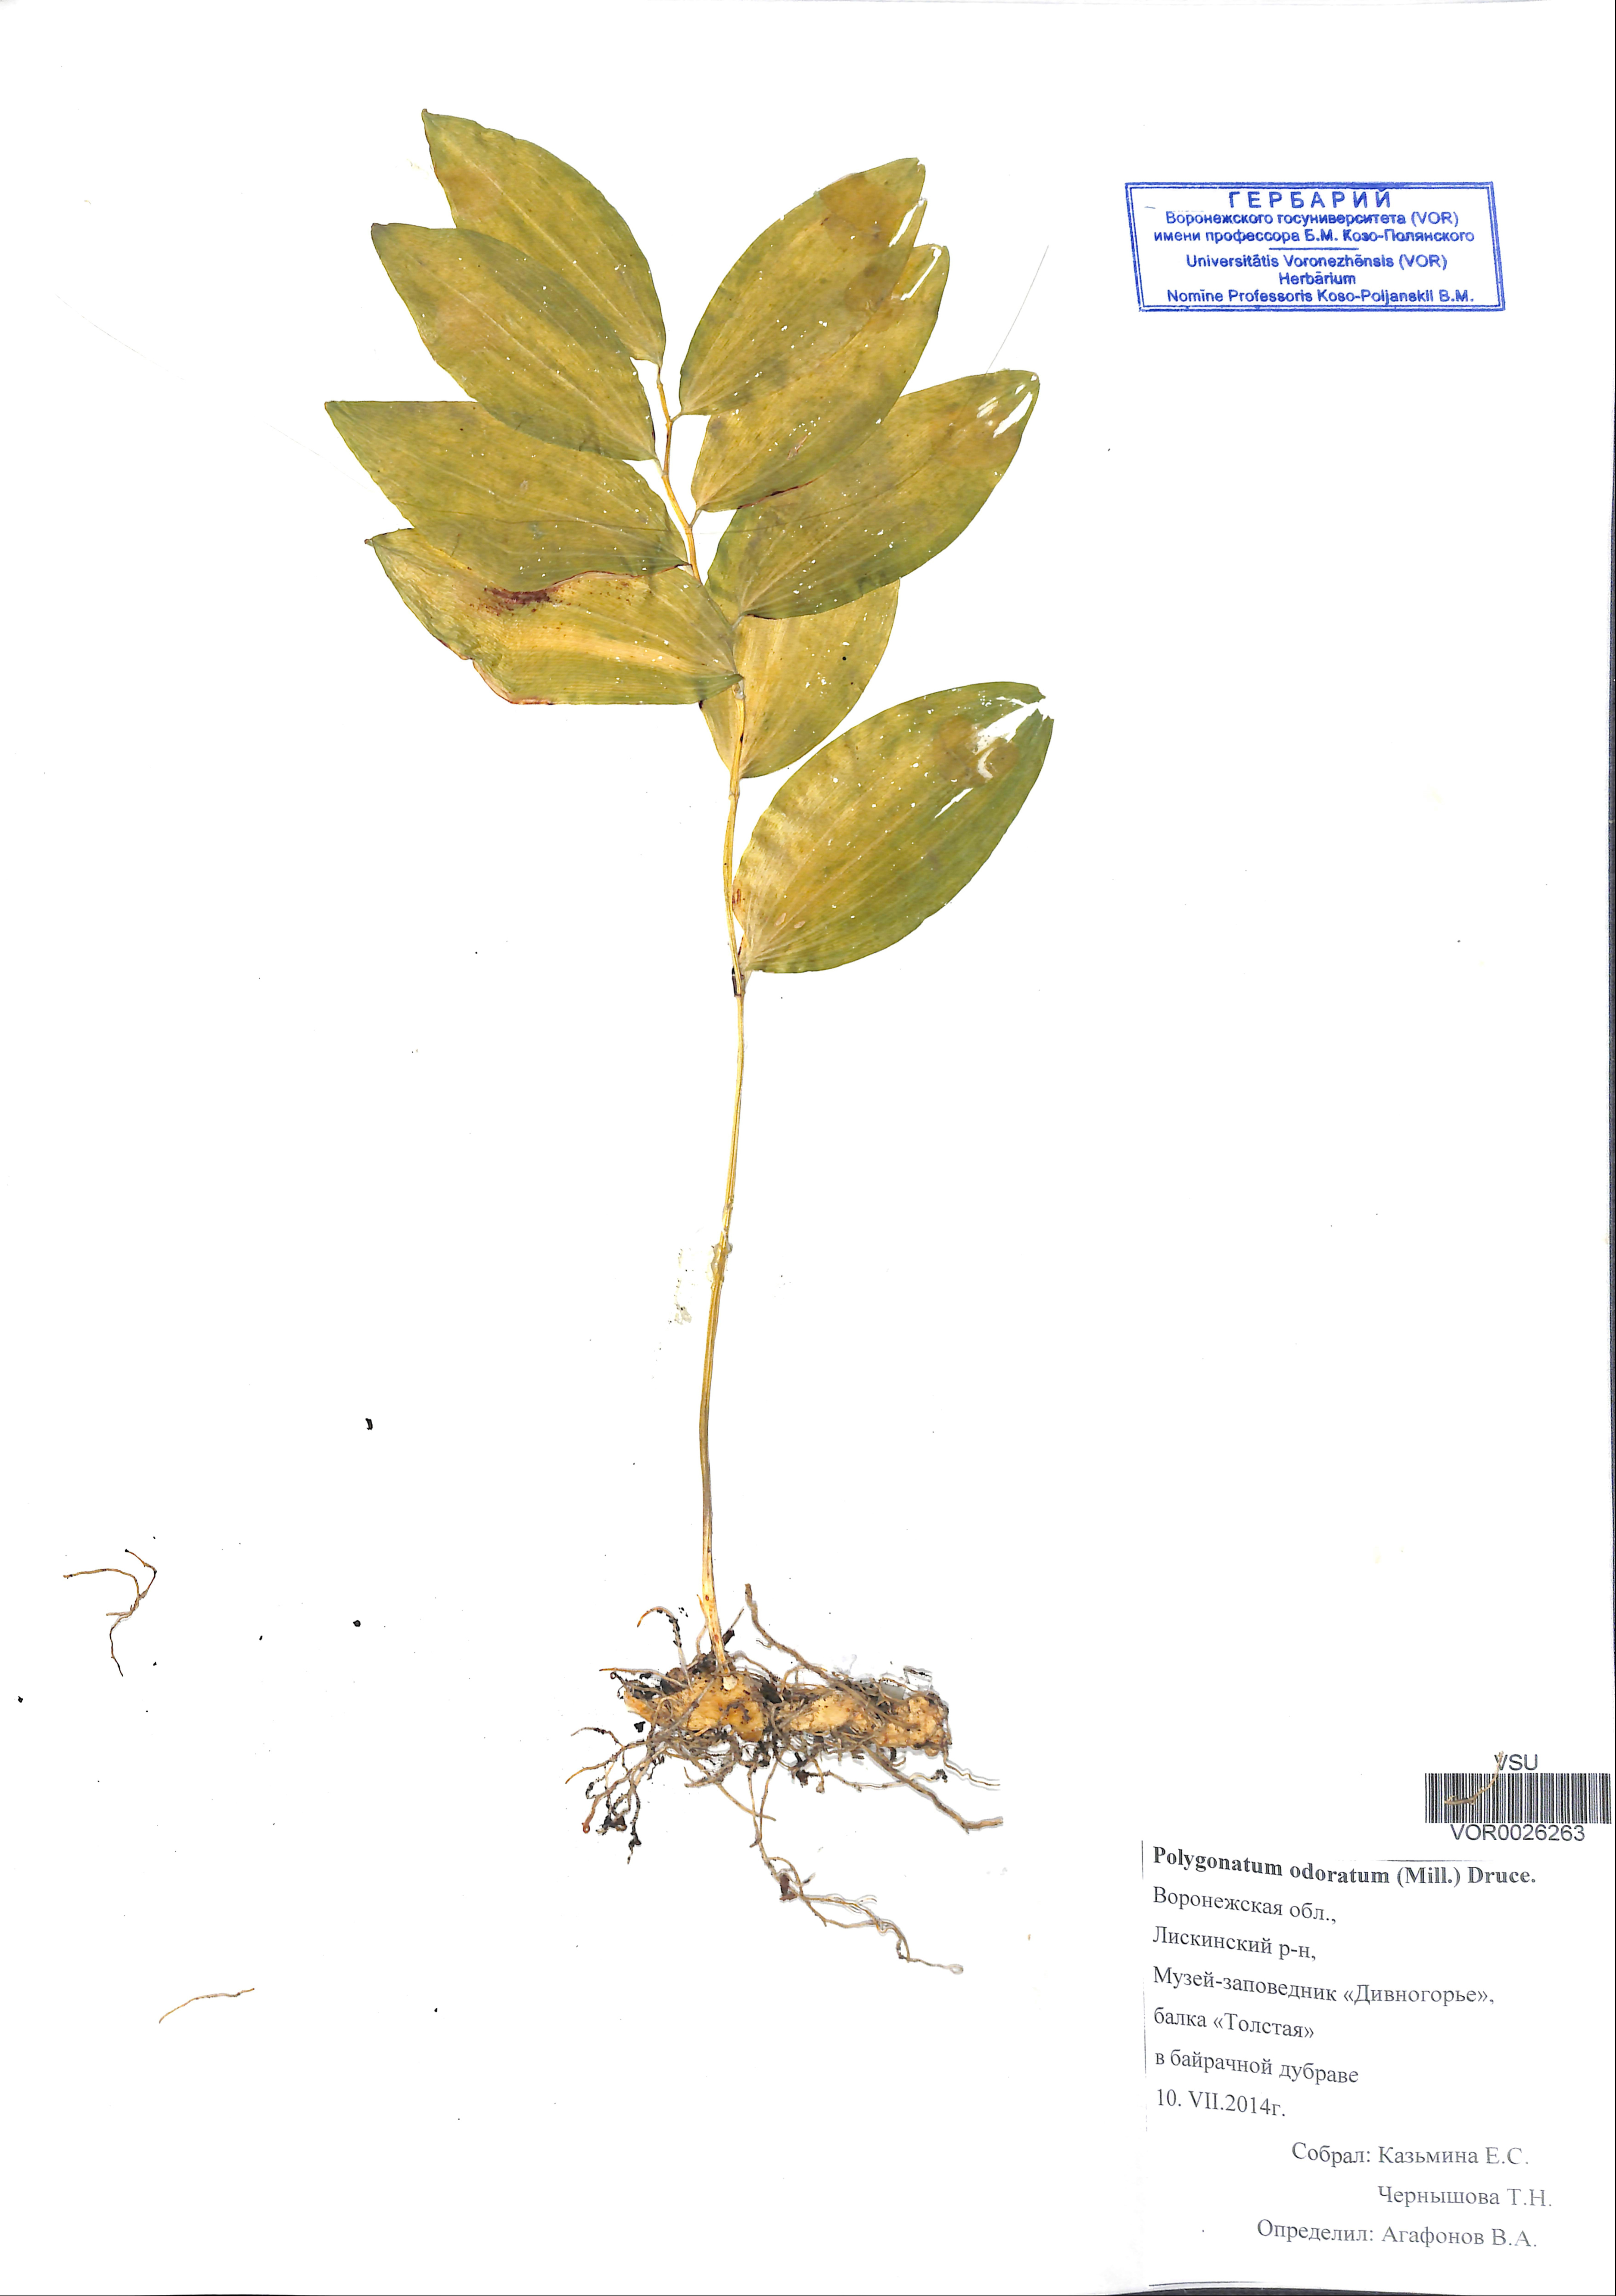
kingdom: Plantae
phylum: Tracheophyta
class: Liliopsida
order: Asparagales
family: Asparagaceae
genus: Polygonatum
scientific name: Polygonatum odoratum
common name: Angular solomon's-seal
